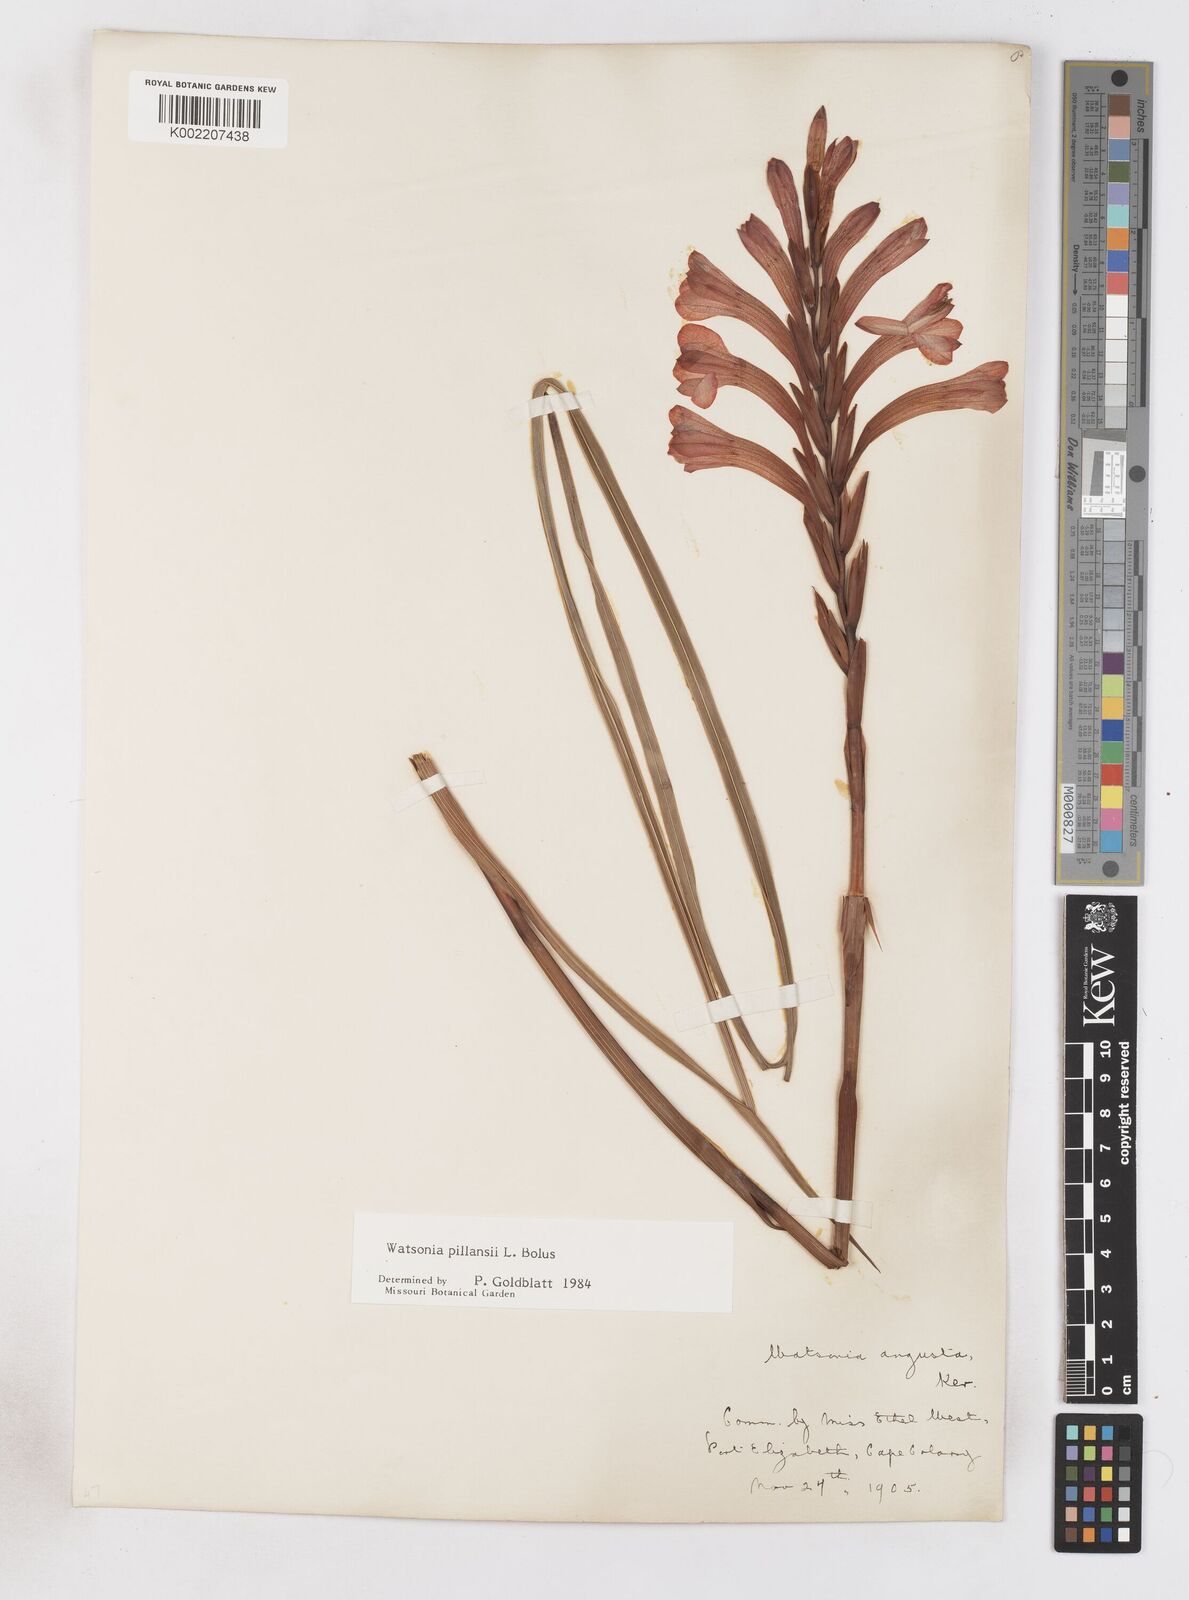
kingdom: Plantae
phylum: Tracheophyta
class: Liliopsida
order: Asparagales
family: Iridaceae
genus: Watsonia
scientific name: Watsonia pillansii
